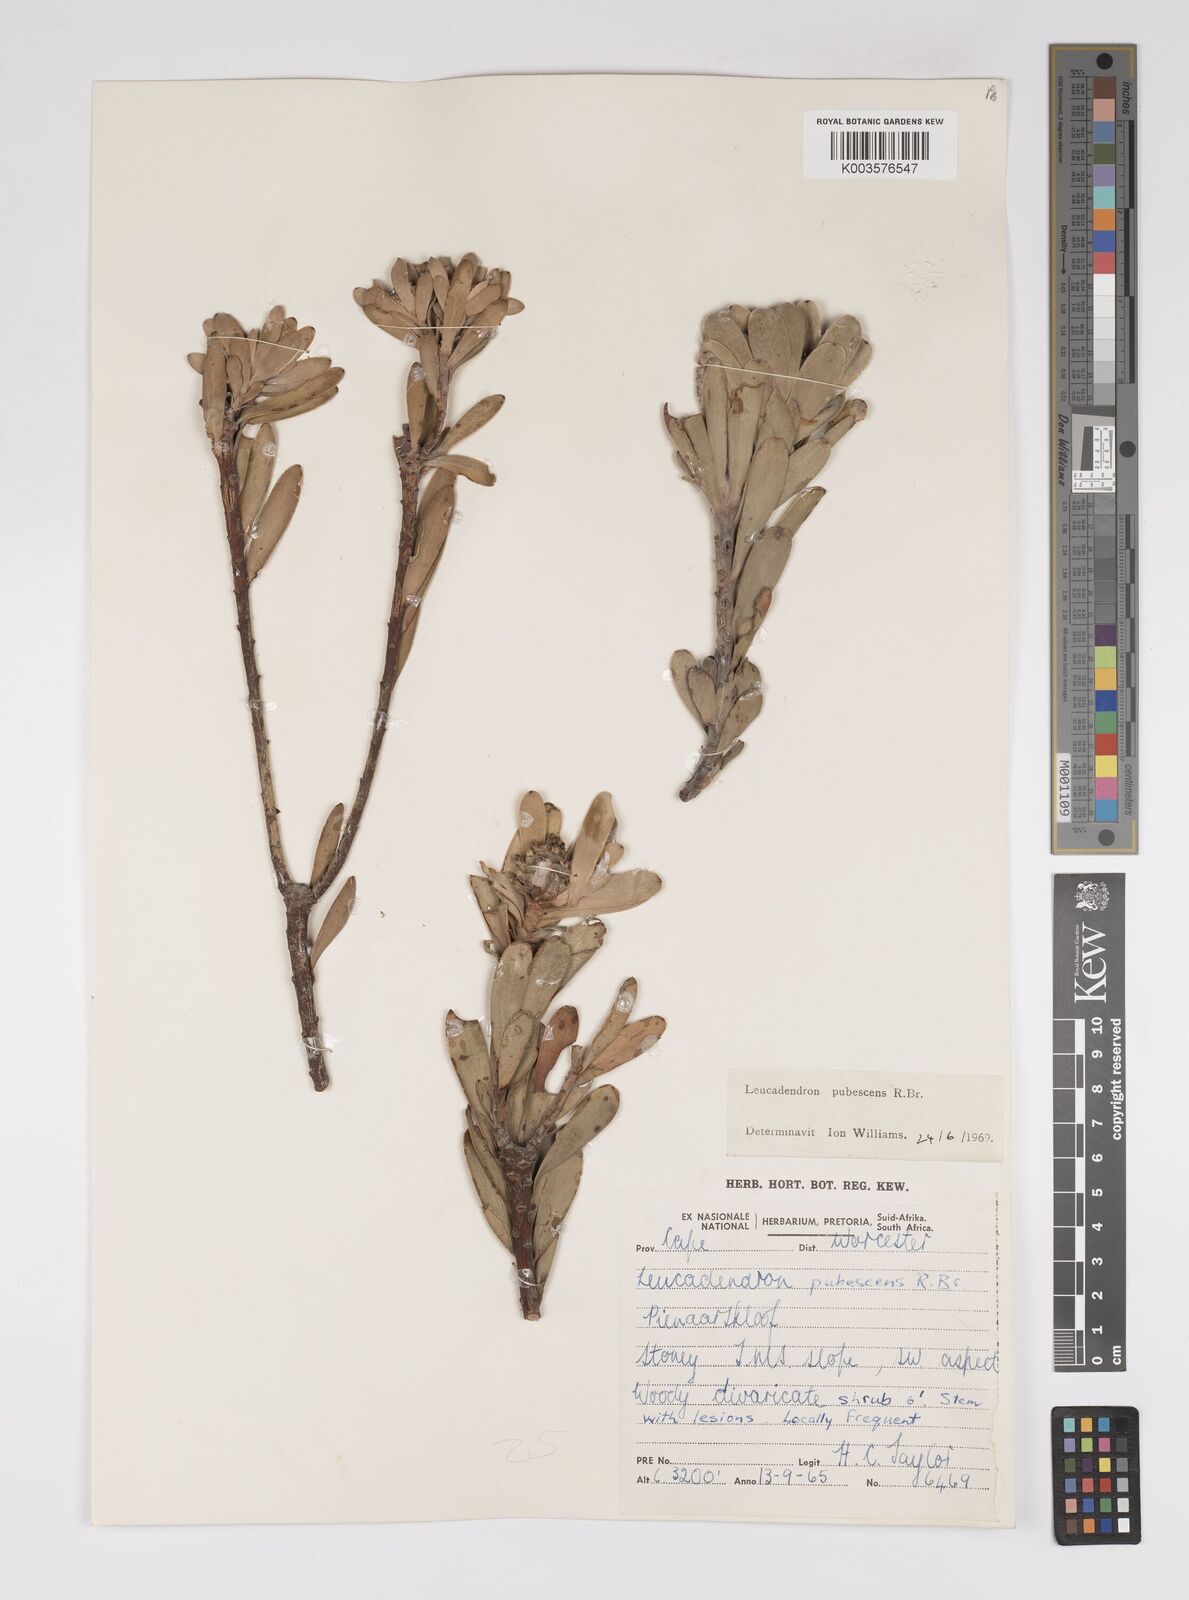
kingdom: Plantae
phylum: Tracheophyta
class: Magnoliopsida
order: Proteales
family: Proteaceae
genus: Leucadendron
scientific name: Leucadendron pubescens
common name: Grey conebush
